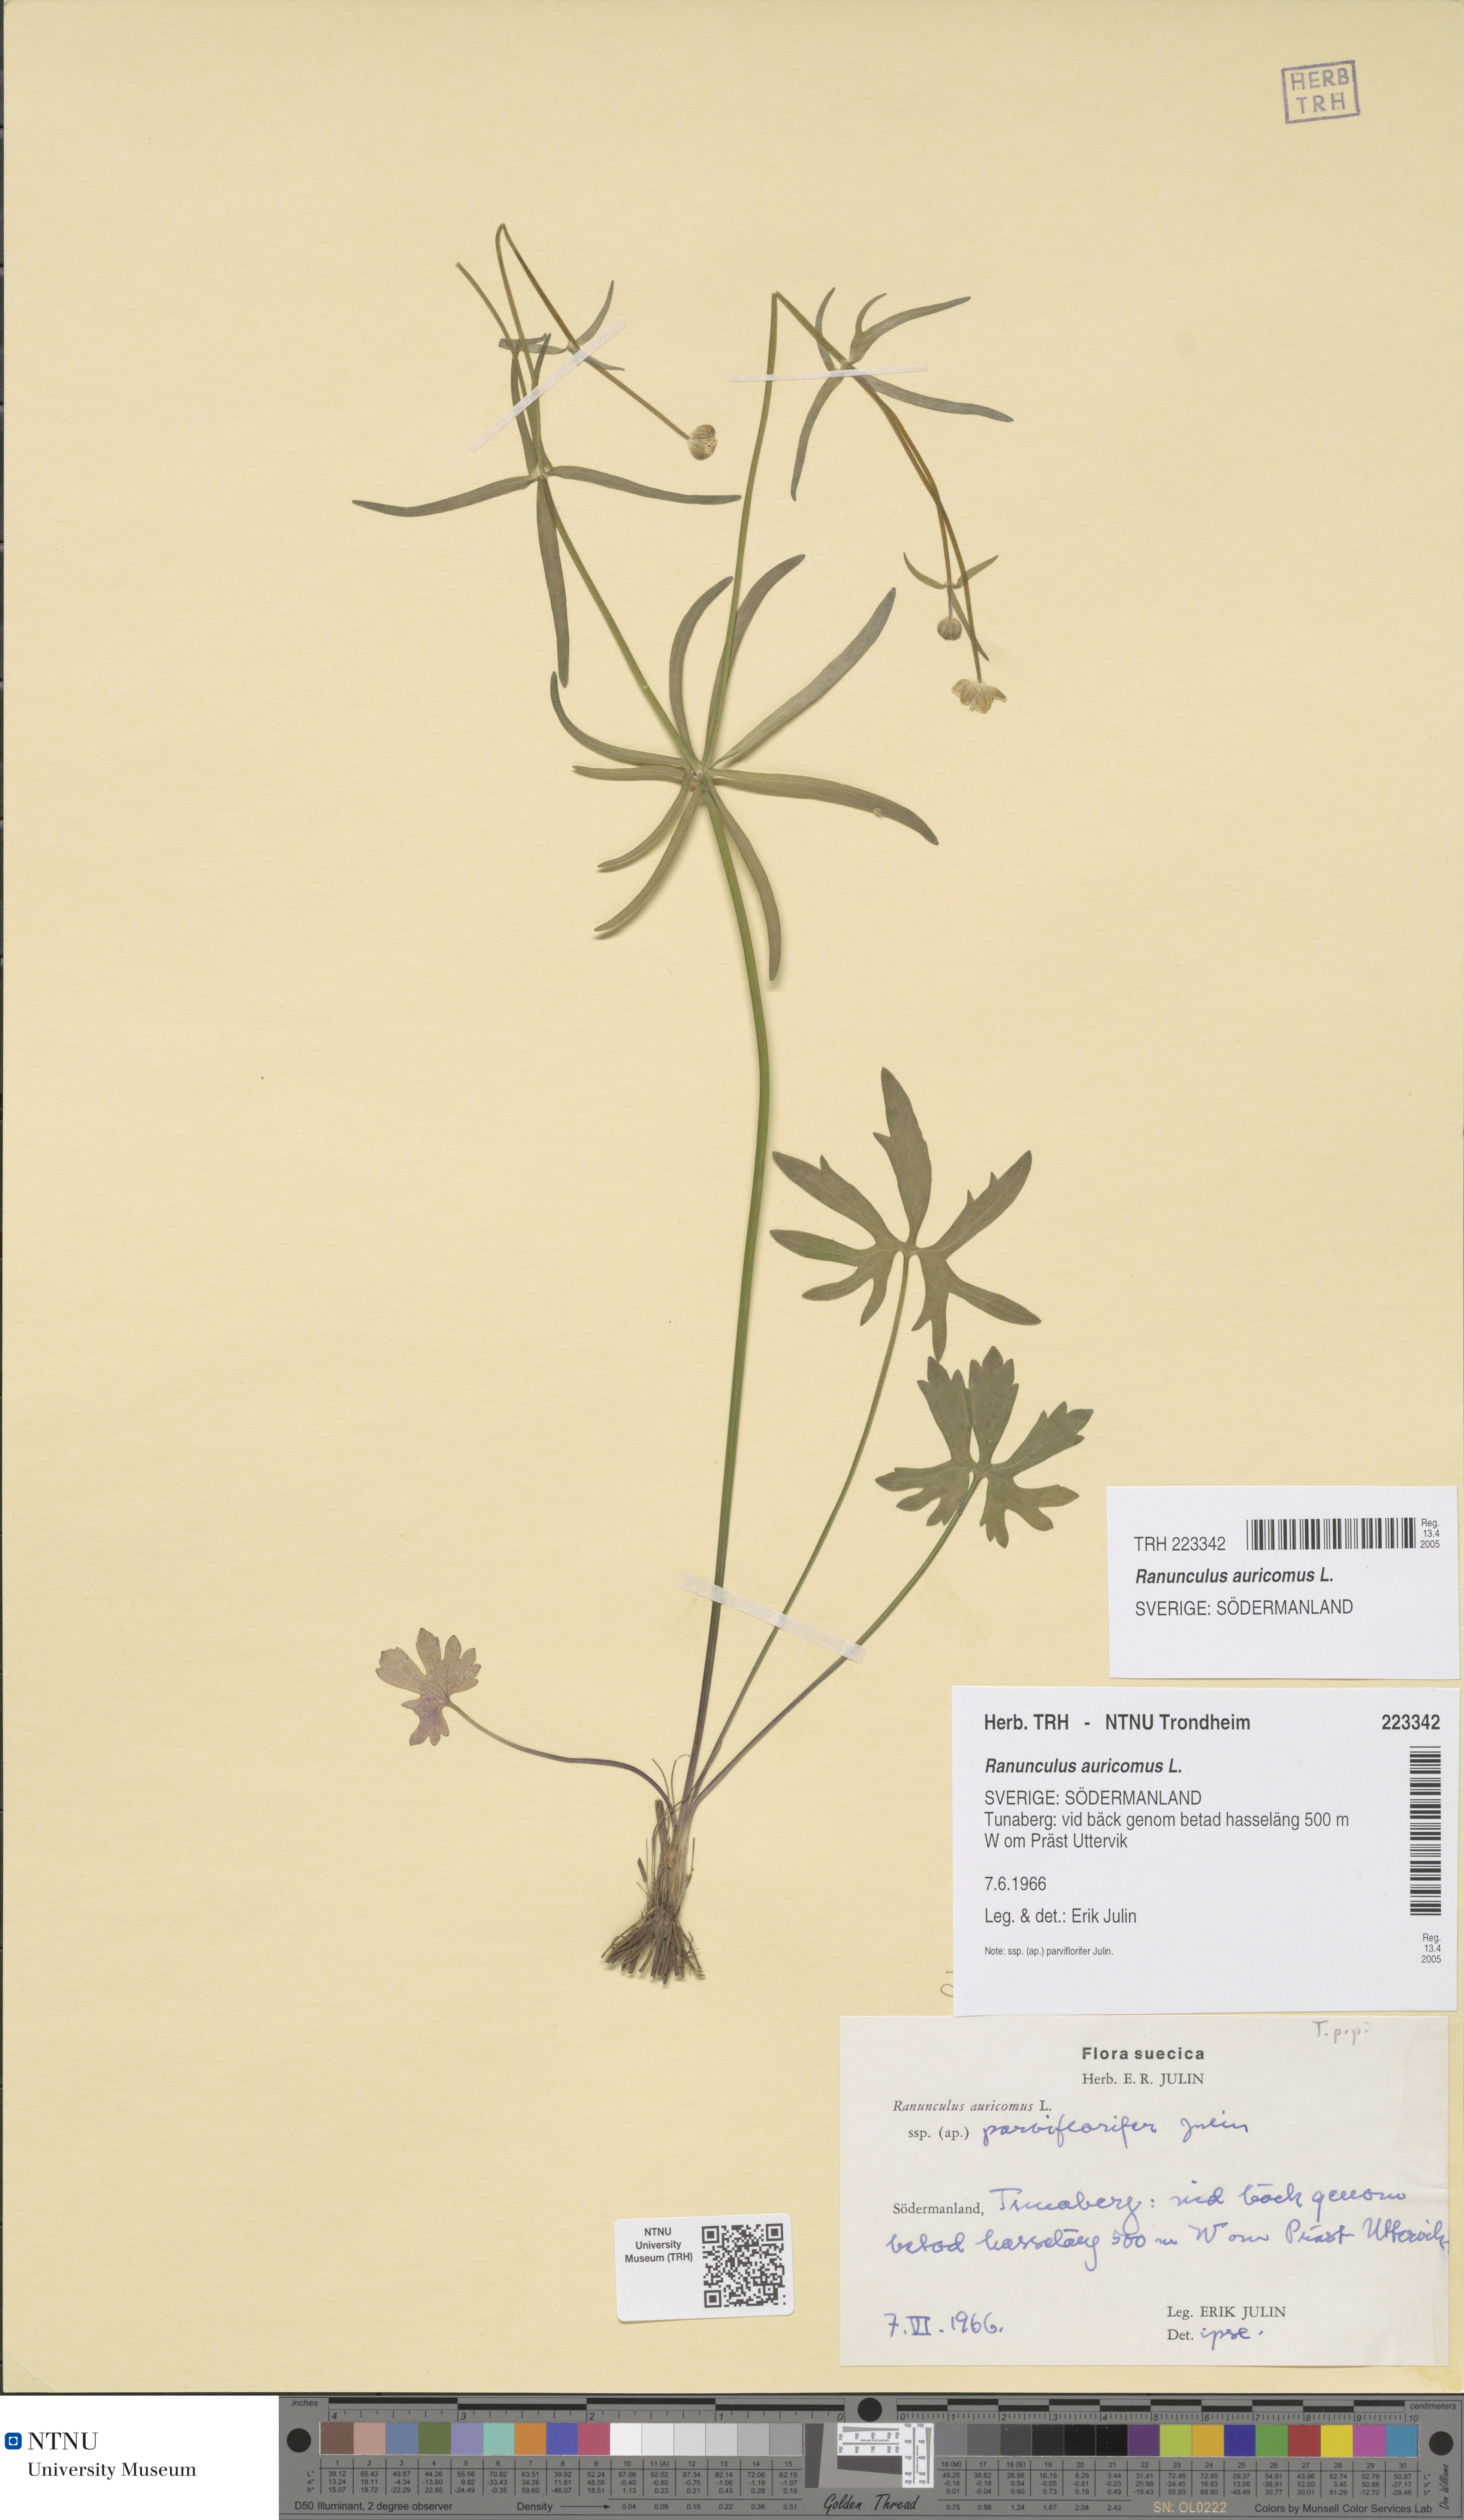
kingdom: Plantae
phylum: Tracheophyta
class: Magnoliopsida
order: Ranunculales
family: Ranunculaceae
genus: Ranunculus
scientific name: Ranunculus auricomus
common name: Goldilocks buttercup
